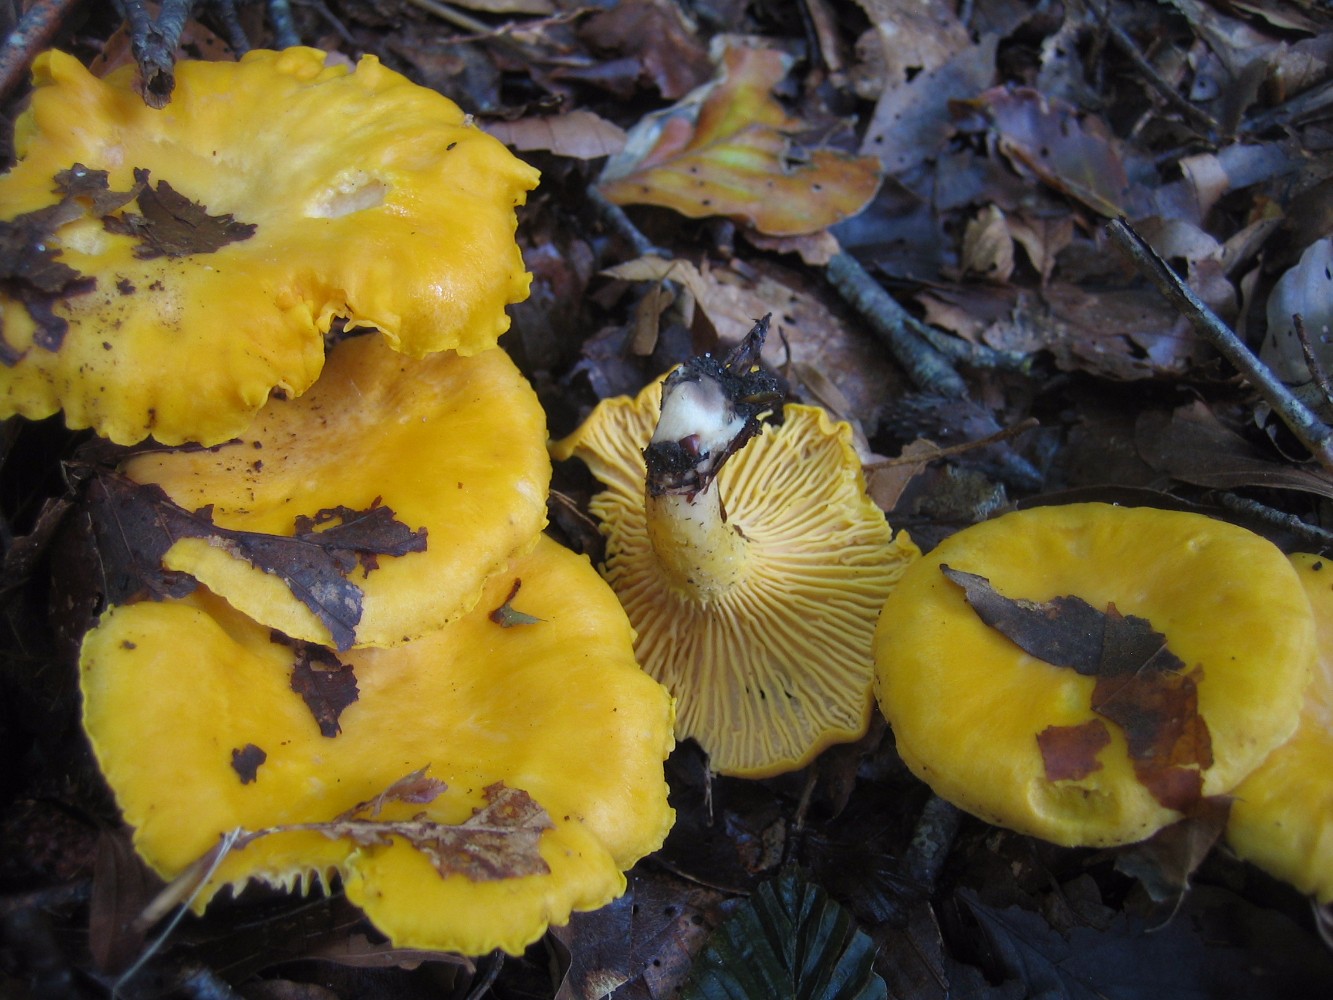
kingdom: Fungi
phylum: Basidiomycota
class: Agaricomycetes
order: Cantharellales
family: Hydnaceae
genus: Cantharellus
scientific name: Cantharellus cibarius
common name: almindelig kantarel
